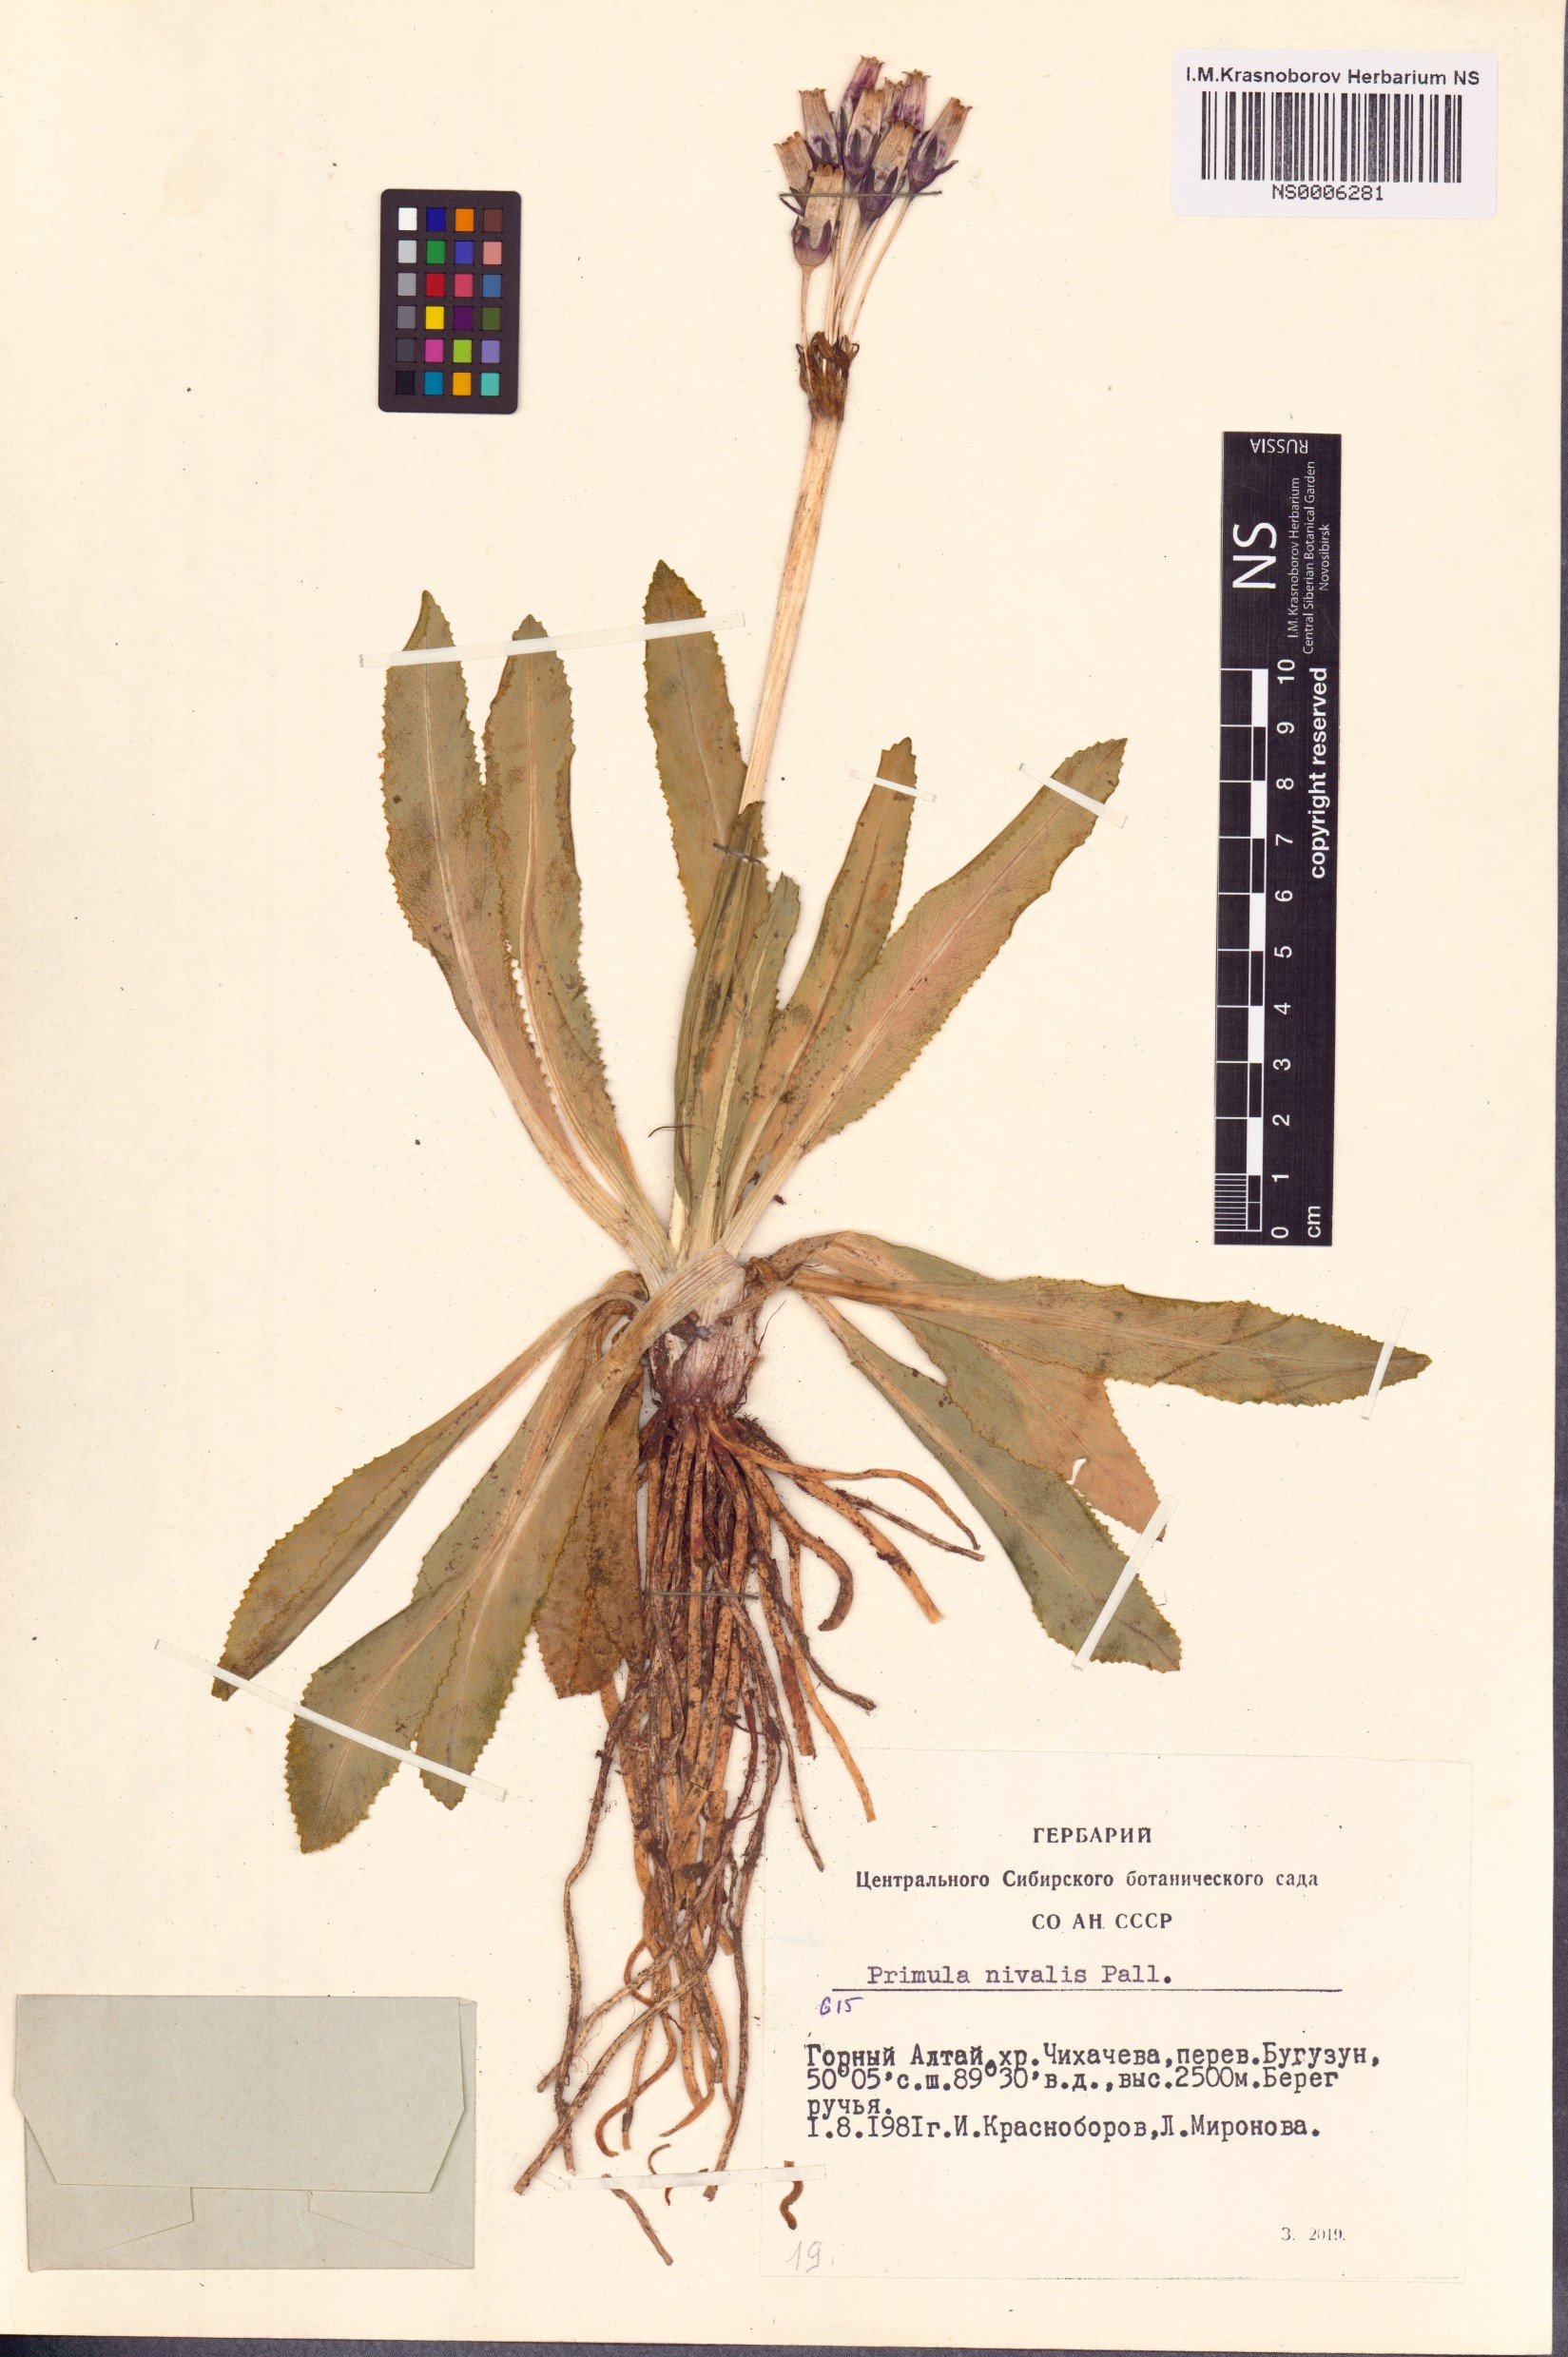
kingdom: Plantae
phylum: Tracheophyta
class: Magnoliopsida
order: Ericales
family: Primulaceae
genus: Primula
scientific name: Primula nivalis
